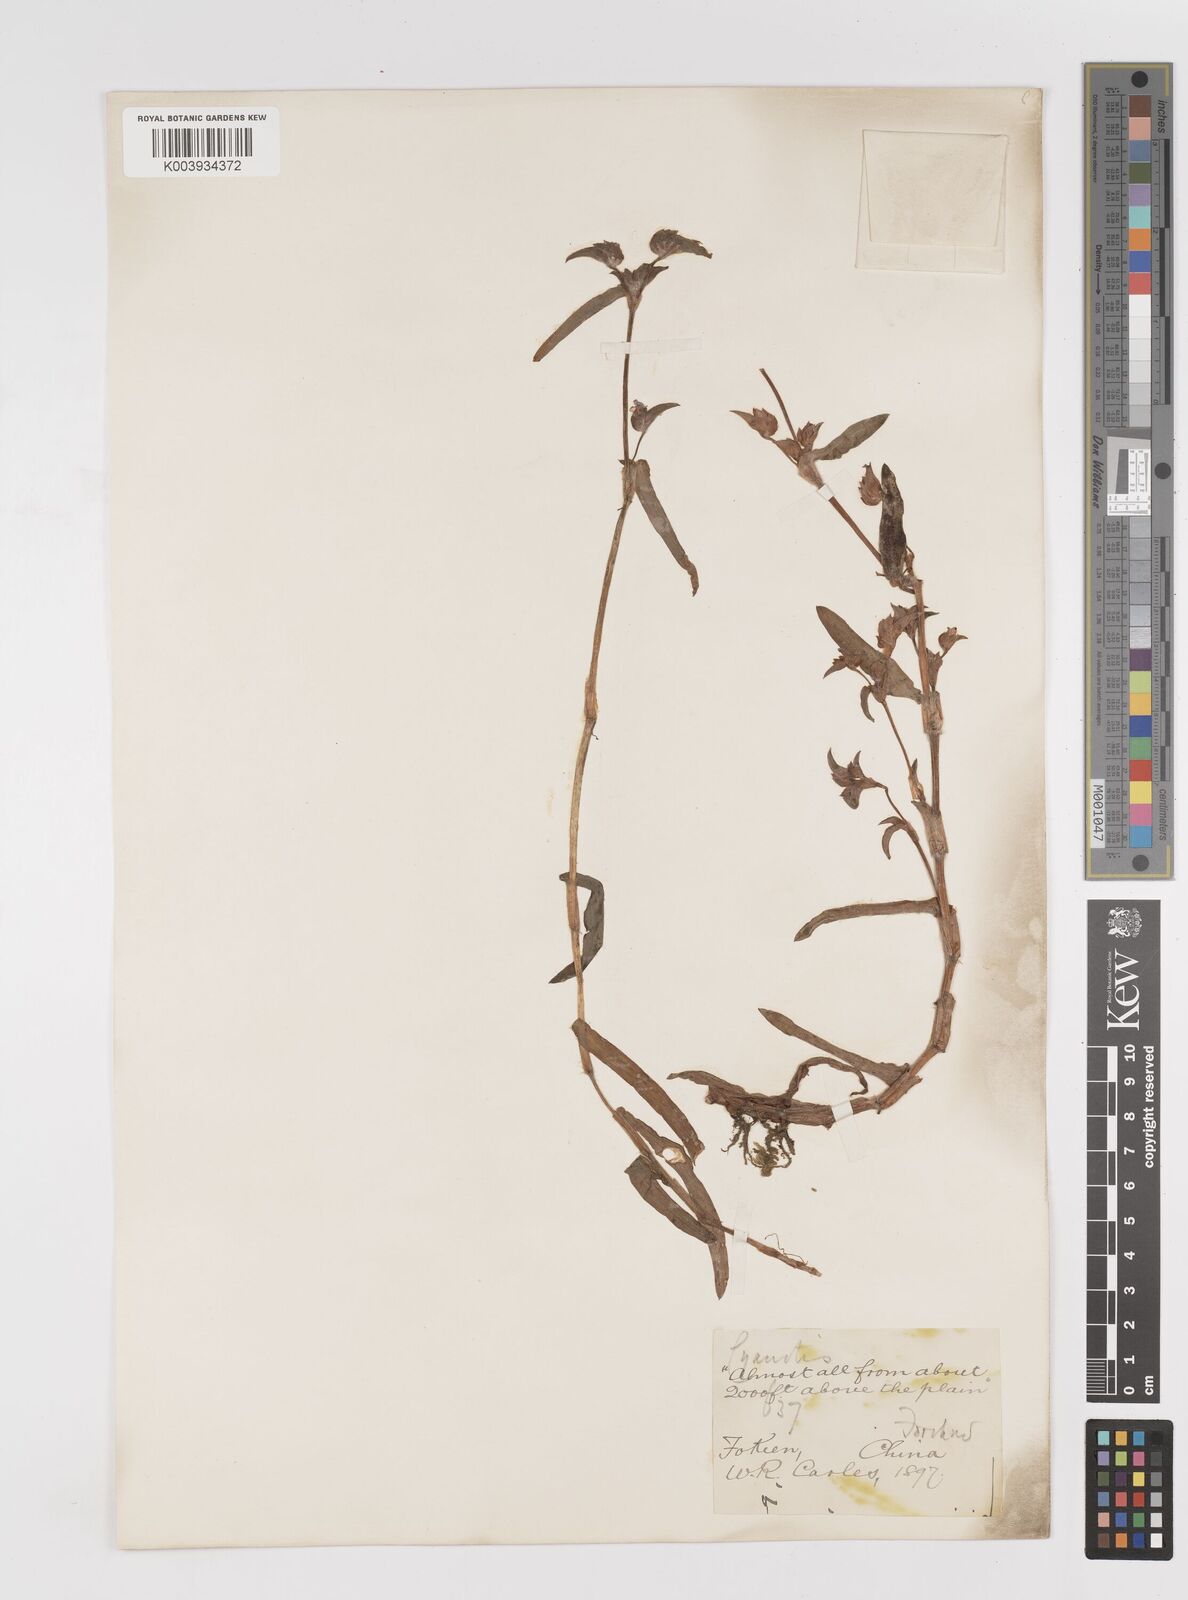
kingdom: Plantae
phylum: Tracheophyta
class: Liliopsida
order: Commelinales
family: Commelinaceae
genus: Cyanotis
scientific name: Cyanotis
